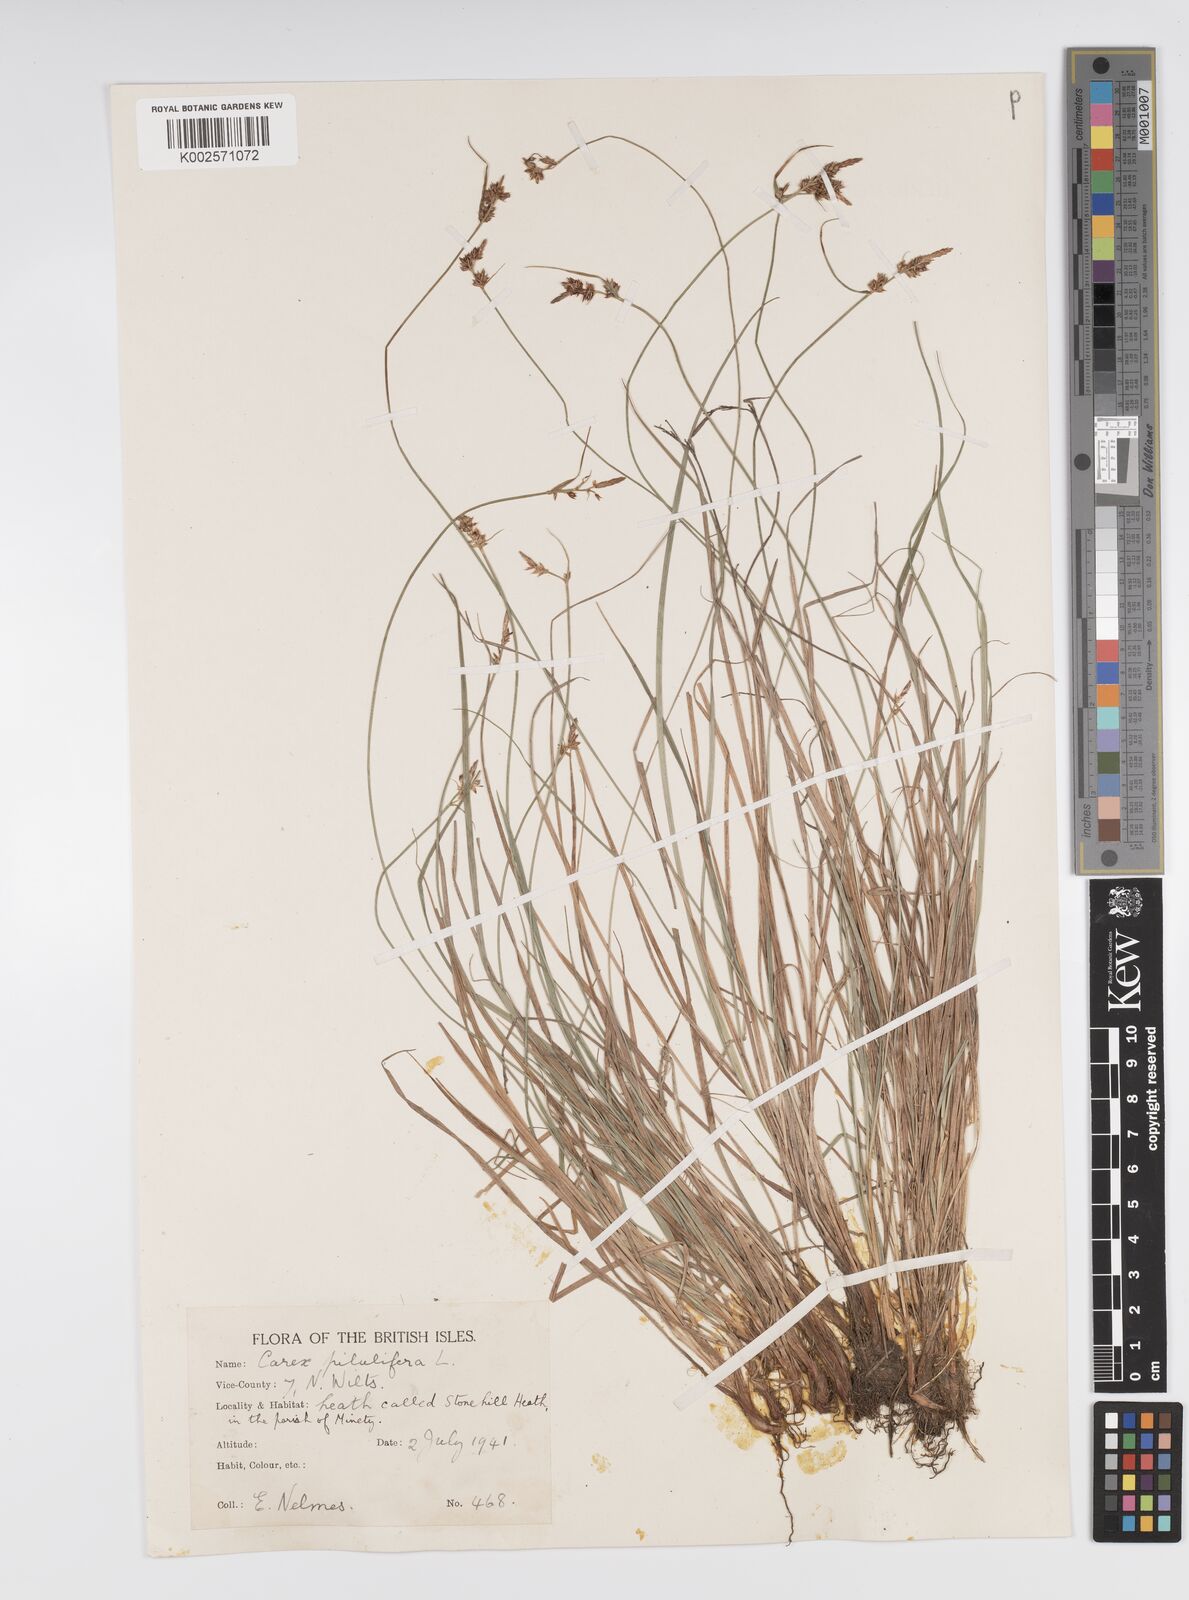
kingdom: Plantae
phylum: Tracheophyta
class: Liliopsida
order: Poales
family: Cyperaceae
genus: Carex
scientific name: Carex pilulifera
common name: Pill sedge
